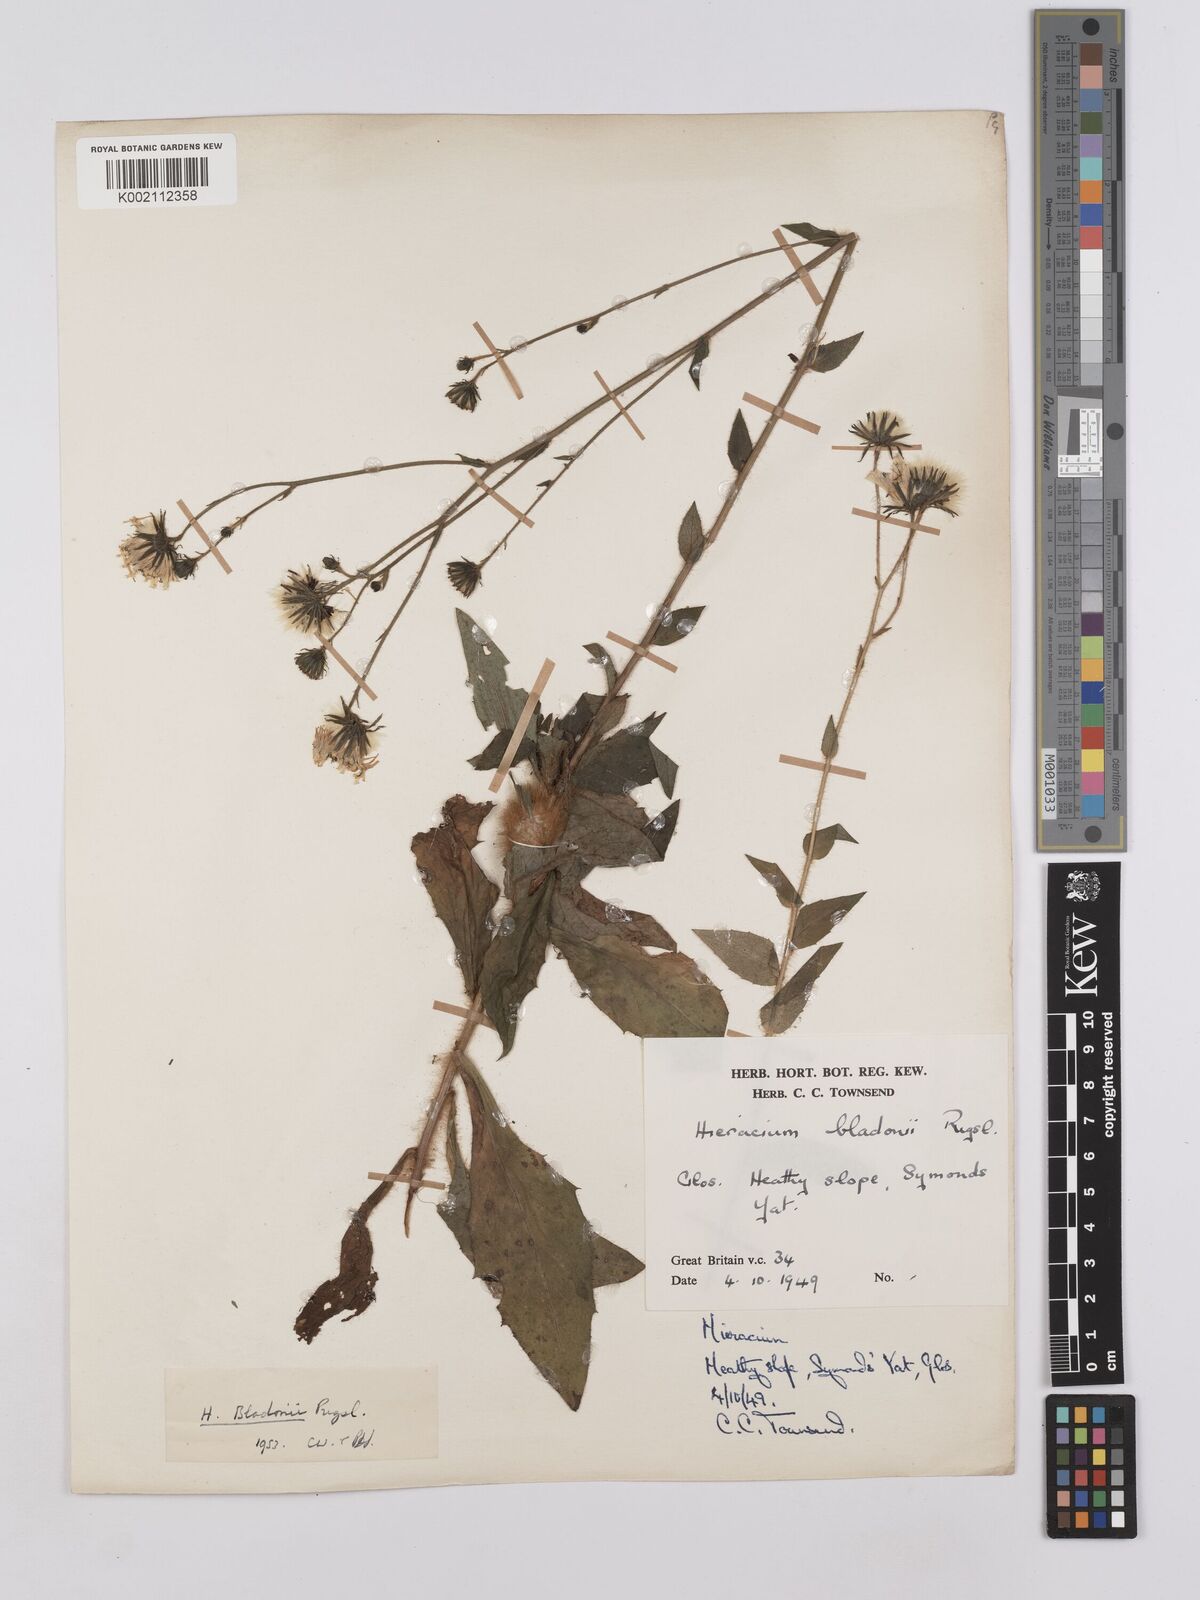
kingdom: Plantae
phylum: Tracheophyta
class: Magnoliopsida
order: Asterales
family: Asteraceae
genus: Hieracium
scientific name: Hieracium sabaudum
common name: New england hawkweed
